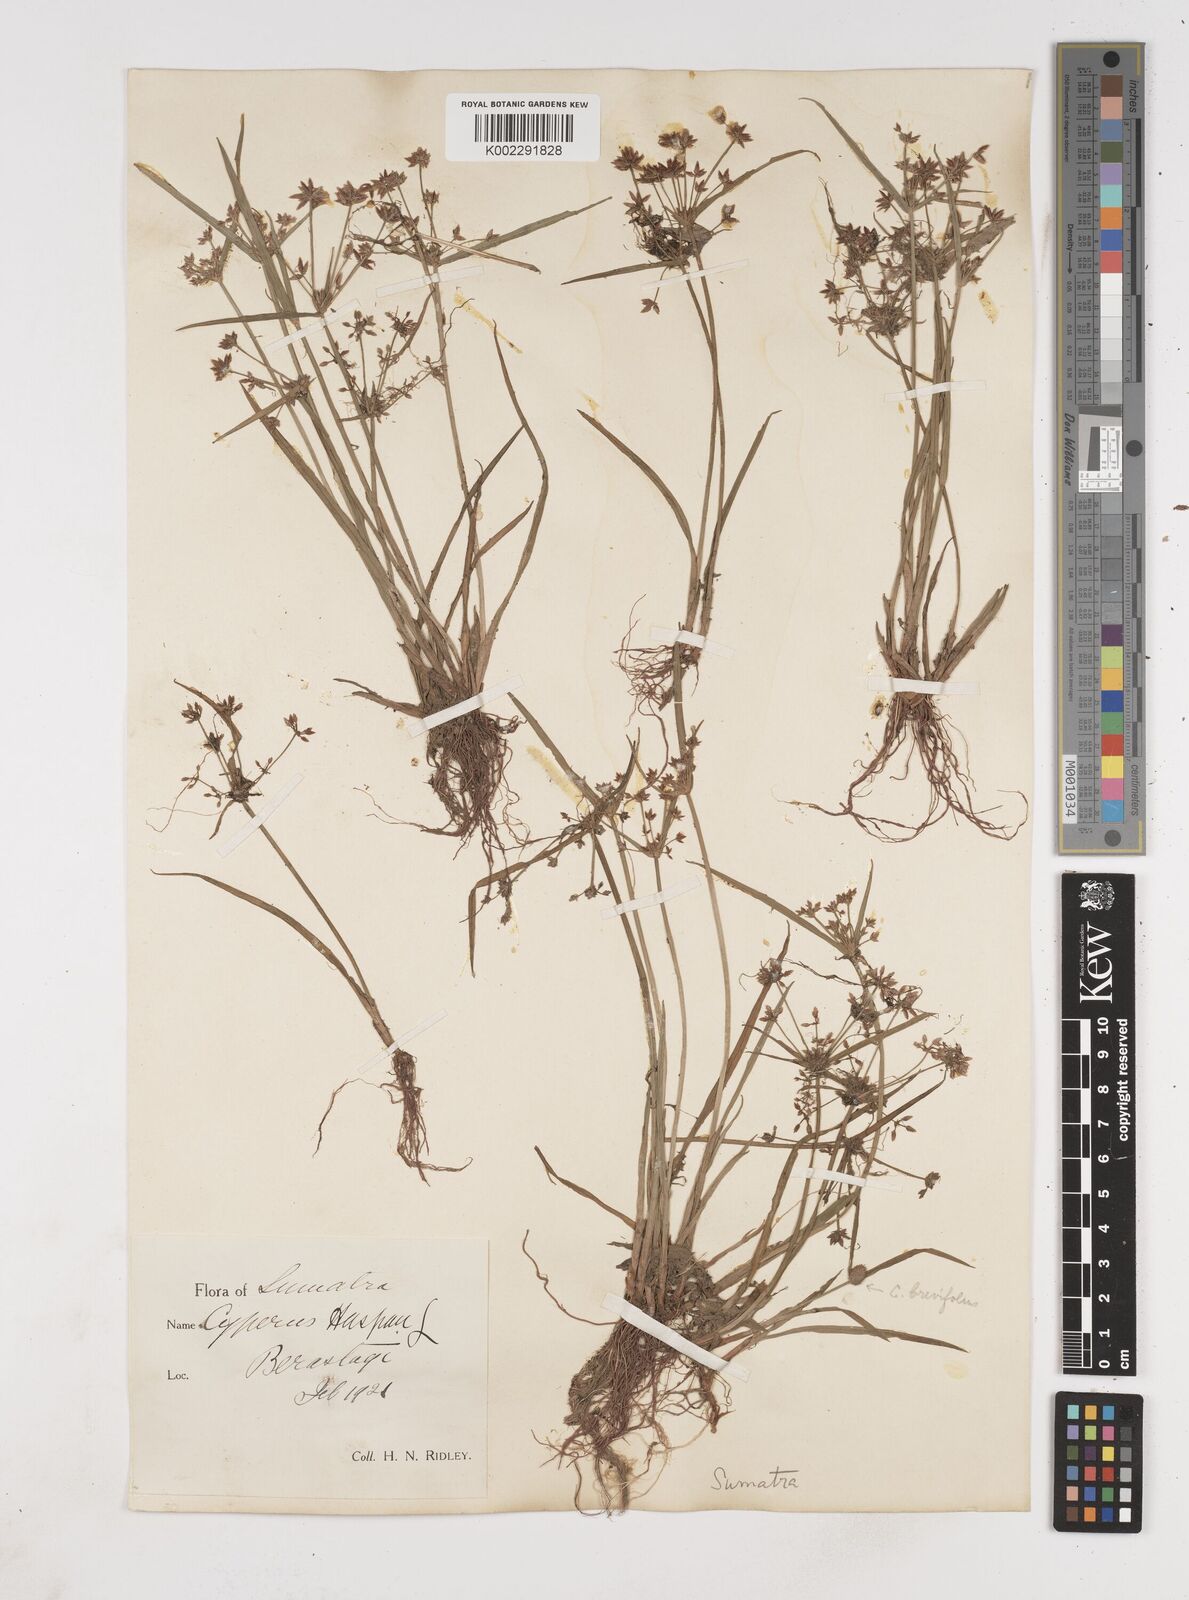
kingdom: Plantae
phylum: Tracheophyta
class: Liliopsida
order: Poales
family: Cyperaceae
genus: Cyperus
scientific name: Cyperus haspan
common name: Haspan flatsedge
